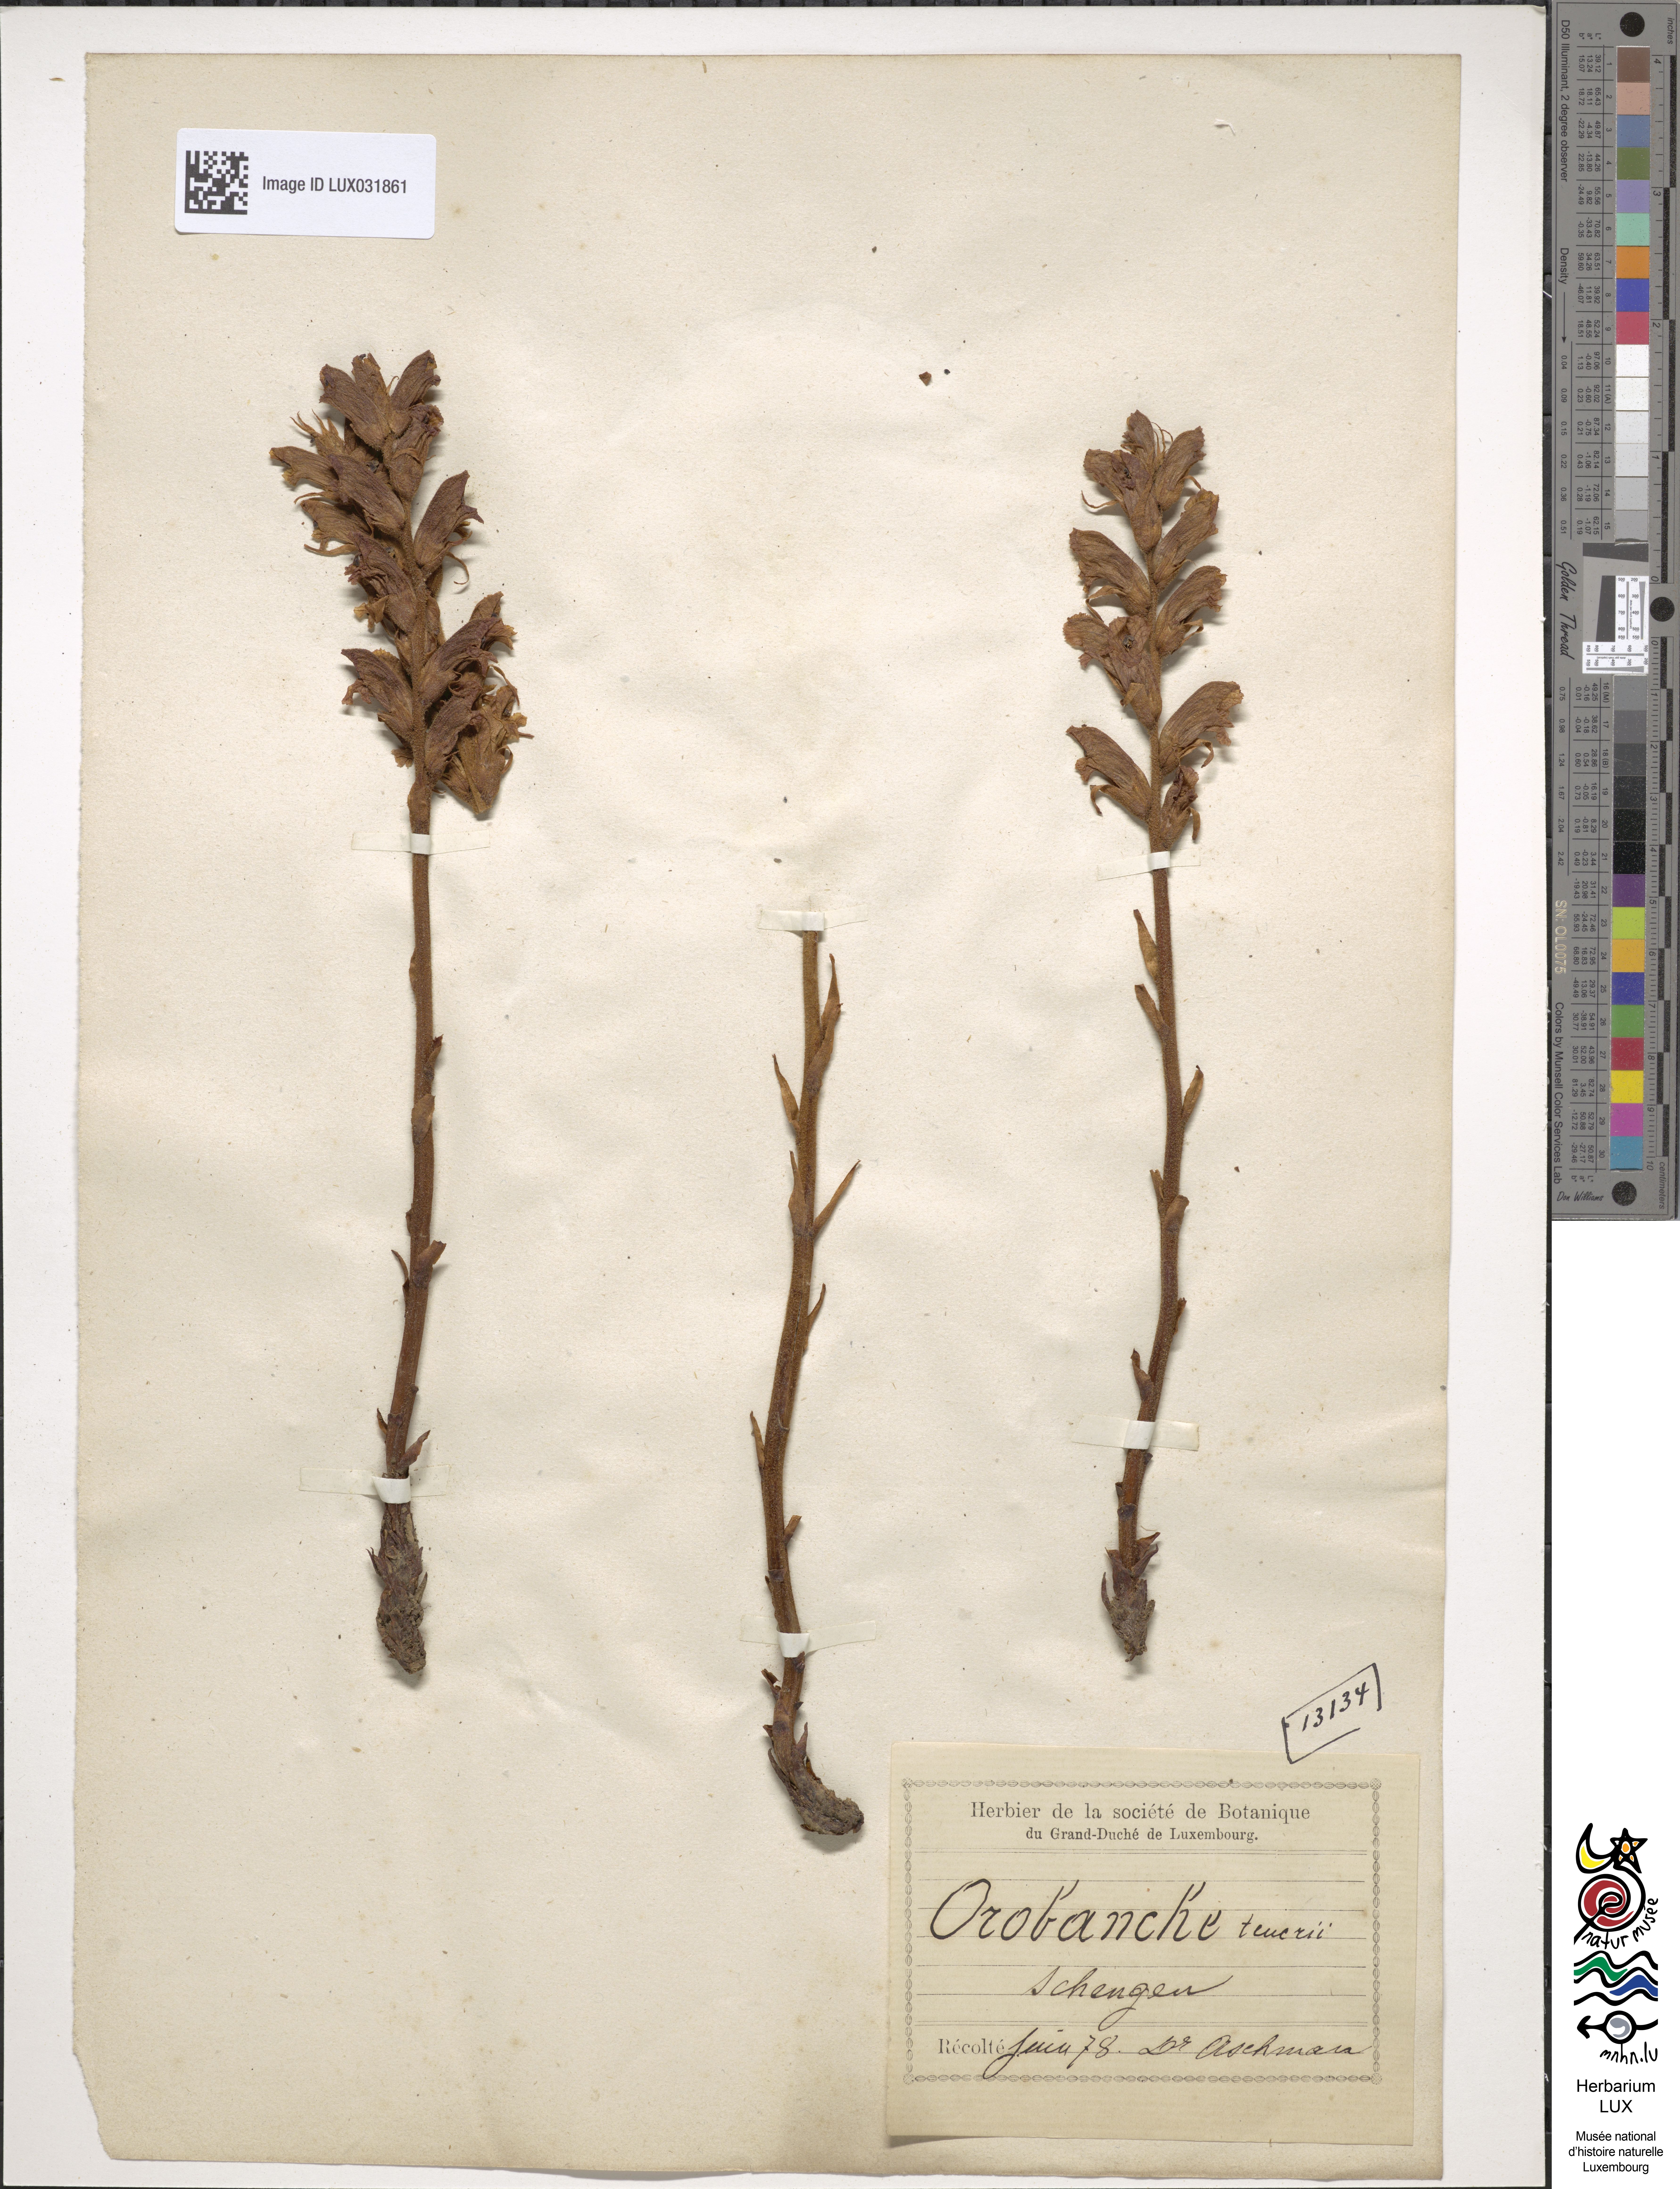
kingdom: Plantae
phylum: Tracheophyta
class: Magnoliopsida
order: Lamiales
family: Orobanchaceae
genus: Orobanche
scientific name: Orobanche teucrii
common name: Germander broomrape
